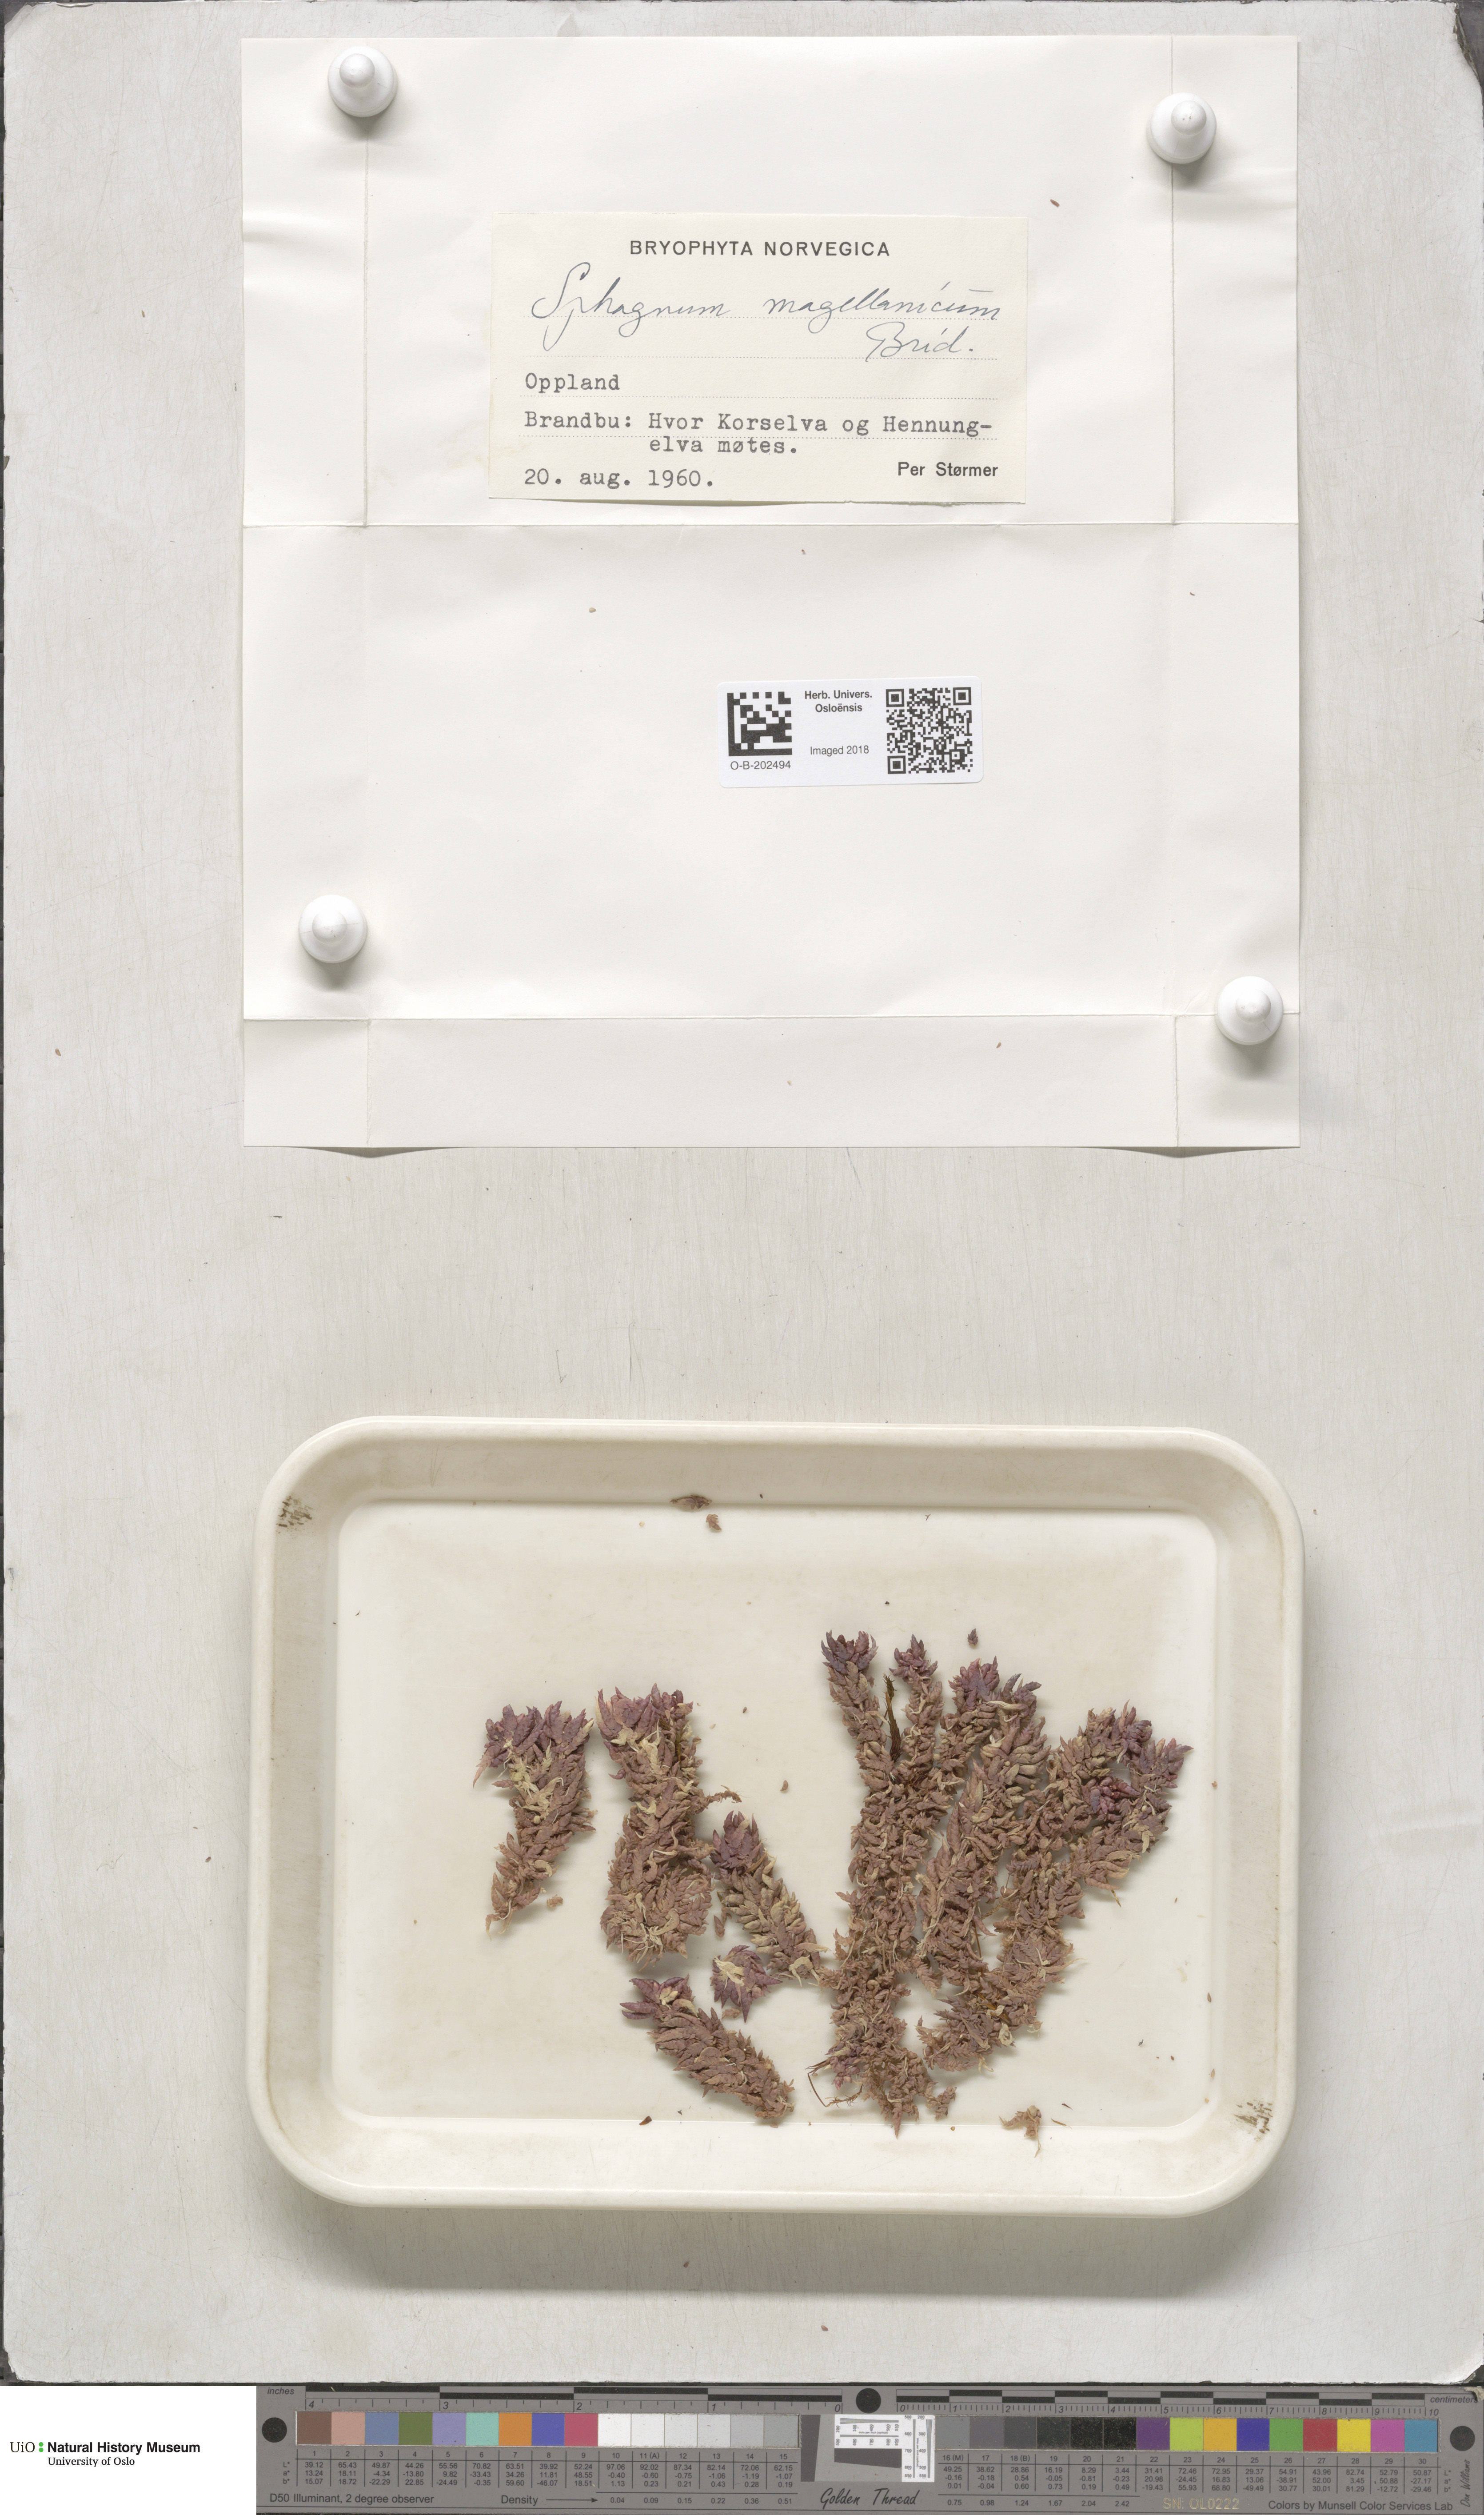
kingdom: Plantae
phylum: Bryophyta
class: Sphagnopsida
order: Sphagnales
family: Sphagnaceae
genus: Sphagnum
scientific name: Sphagnum magellanicum
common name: Magellan's peat moss
